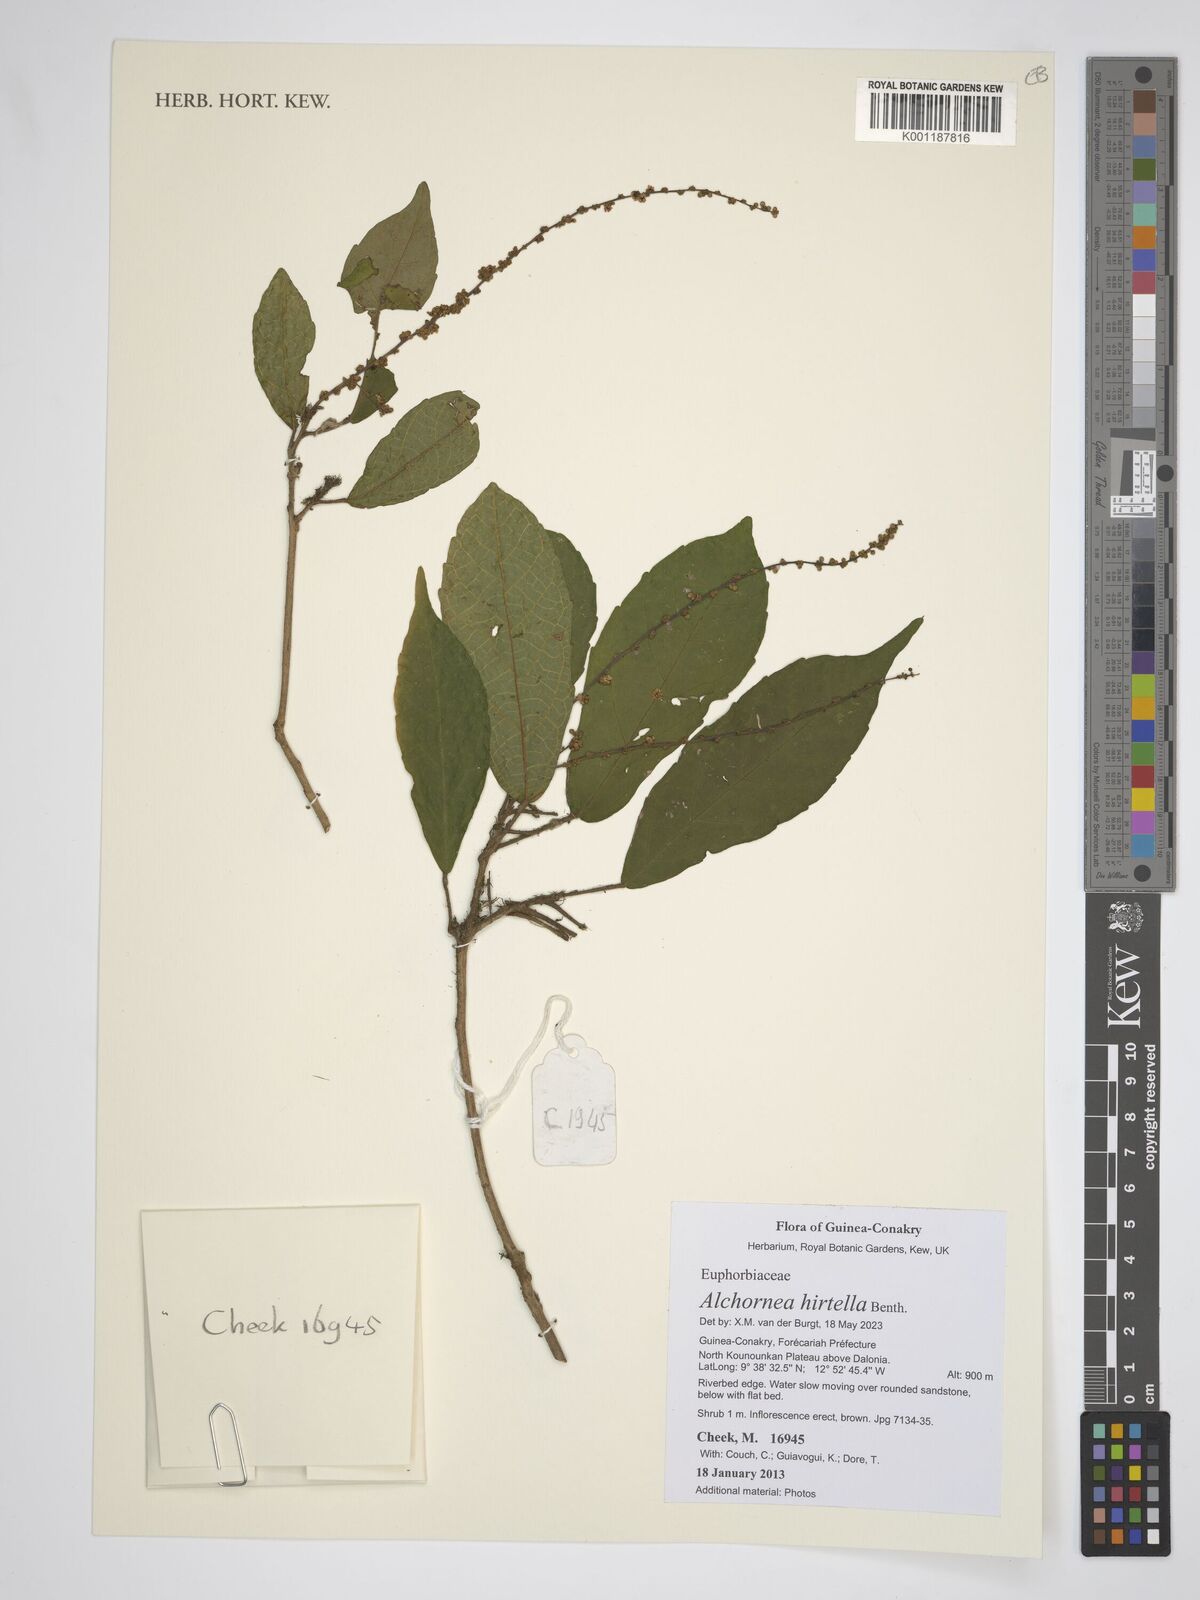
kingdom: Plantae
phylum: Tracheophyta
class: Magnoliopsida
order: Malpighiales
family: Euphorbiaceae
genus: Alchornea
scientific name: Alchornea hirtella
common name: Forest bead-string
